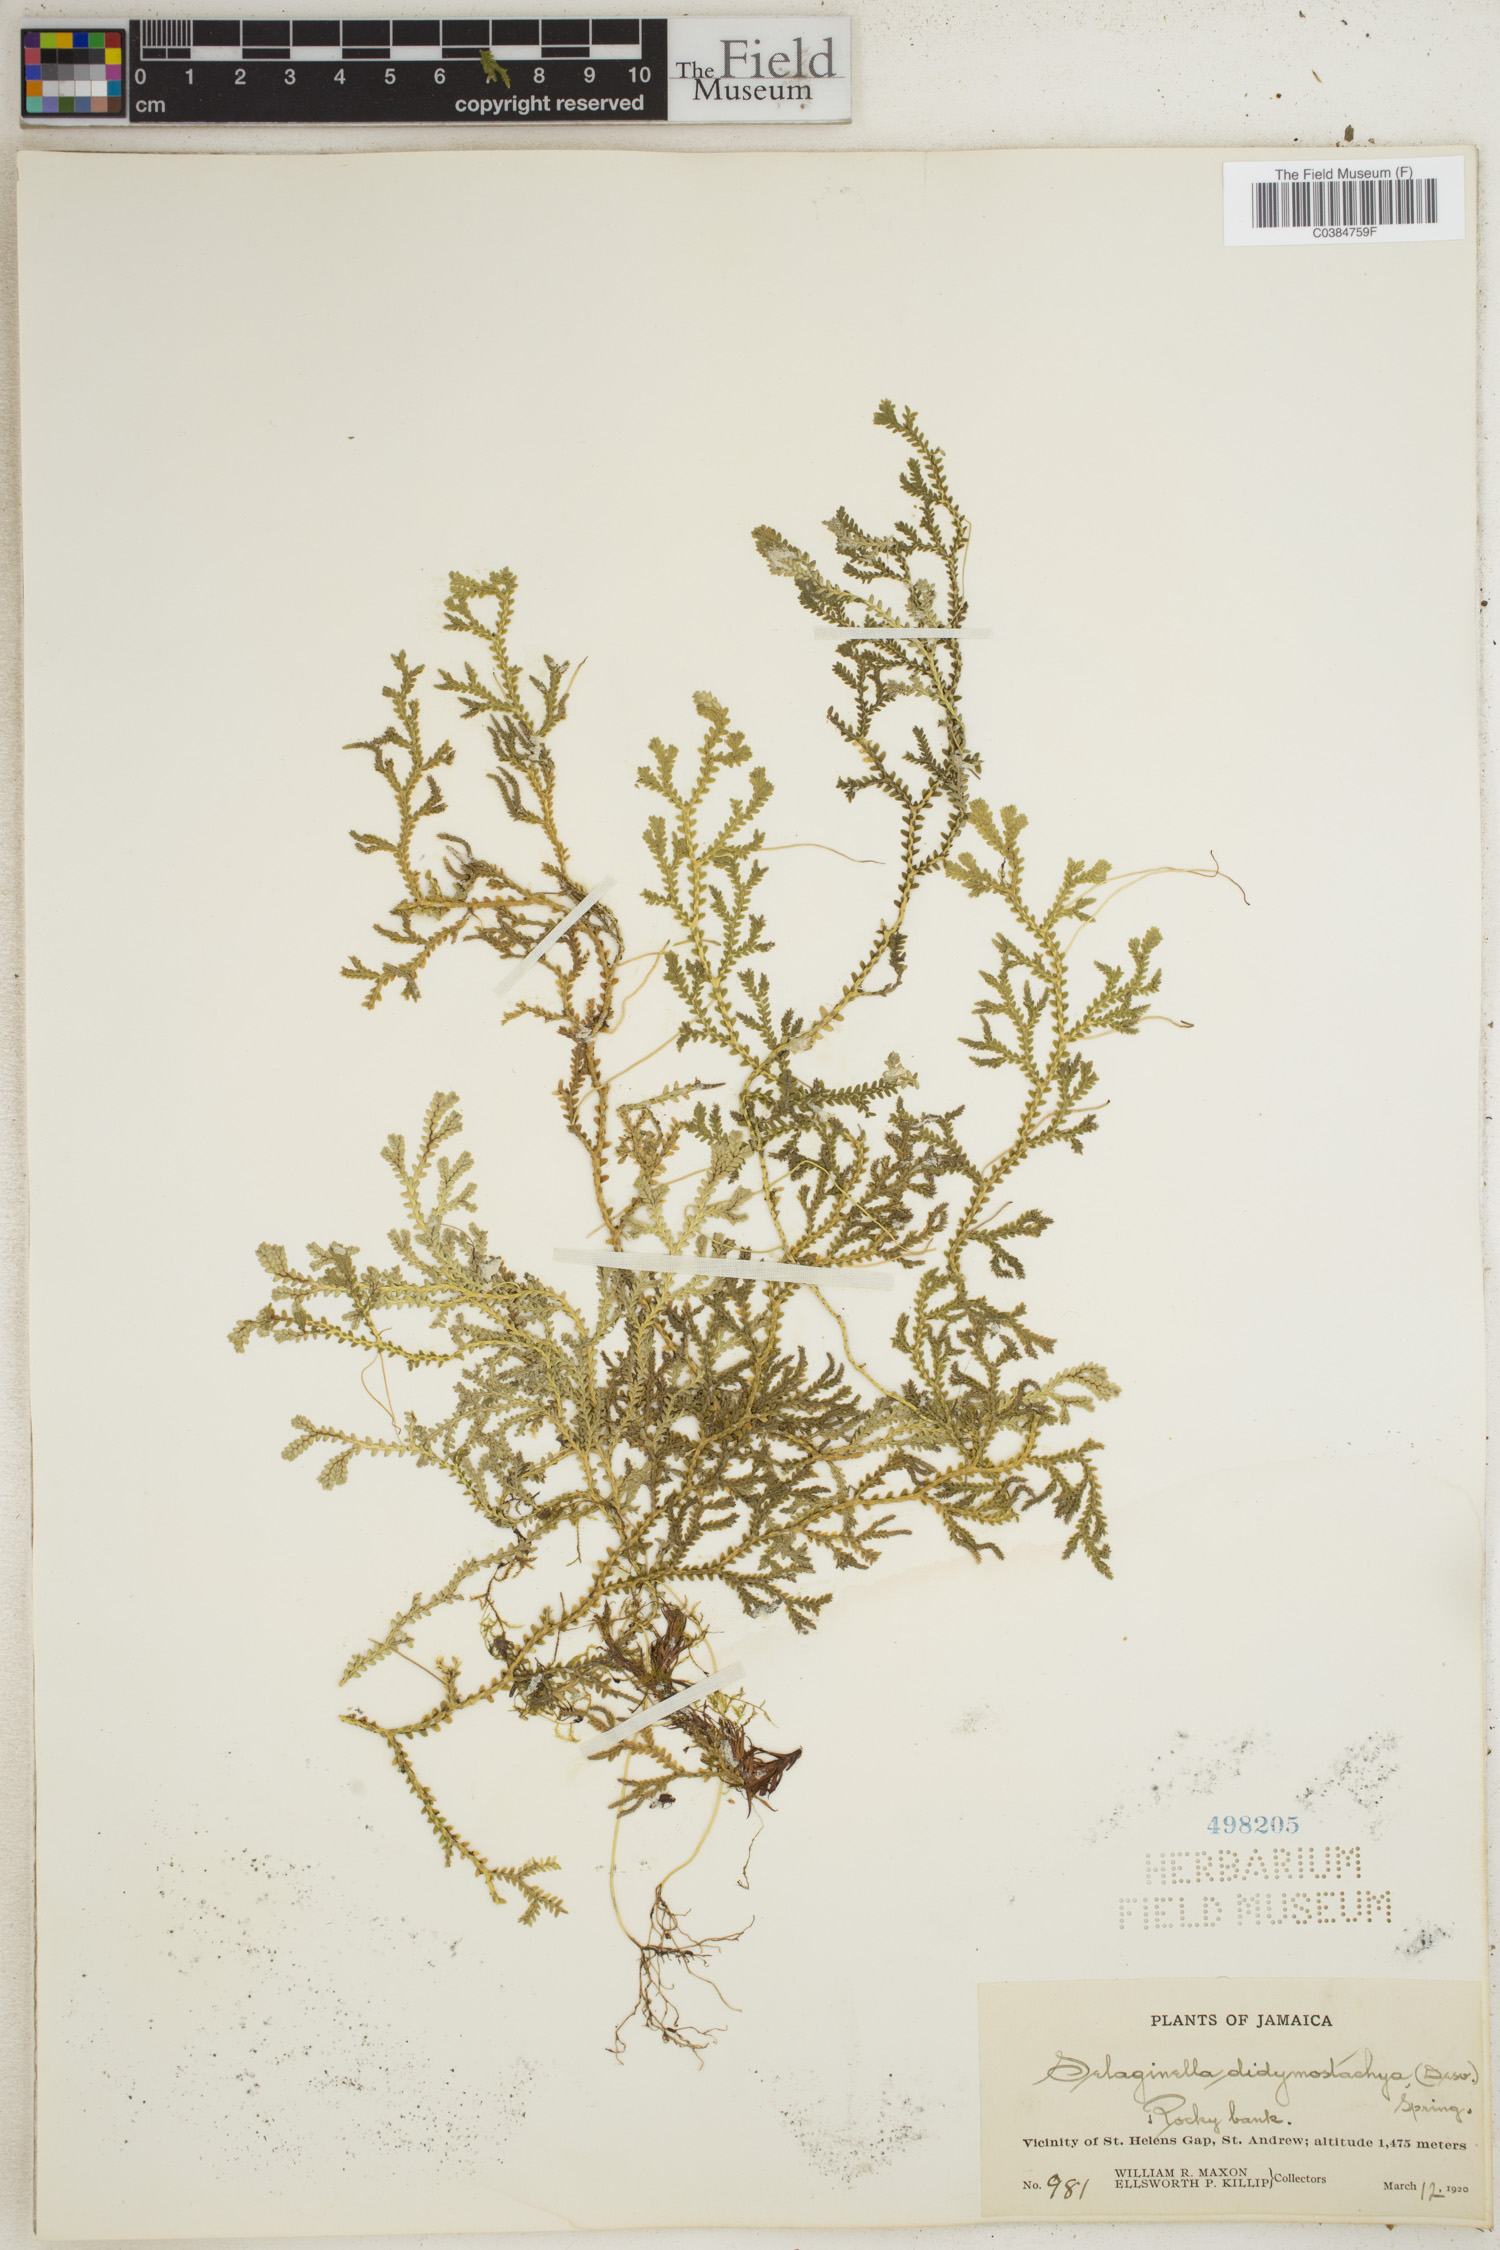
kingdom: Plantae
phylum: Tracheophyta
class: Lycopodiopsida
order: Selaginellales
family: Selaginellaceae
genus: Selaginella
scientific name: Selaginella denudata
